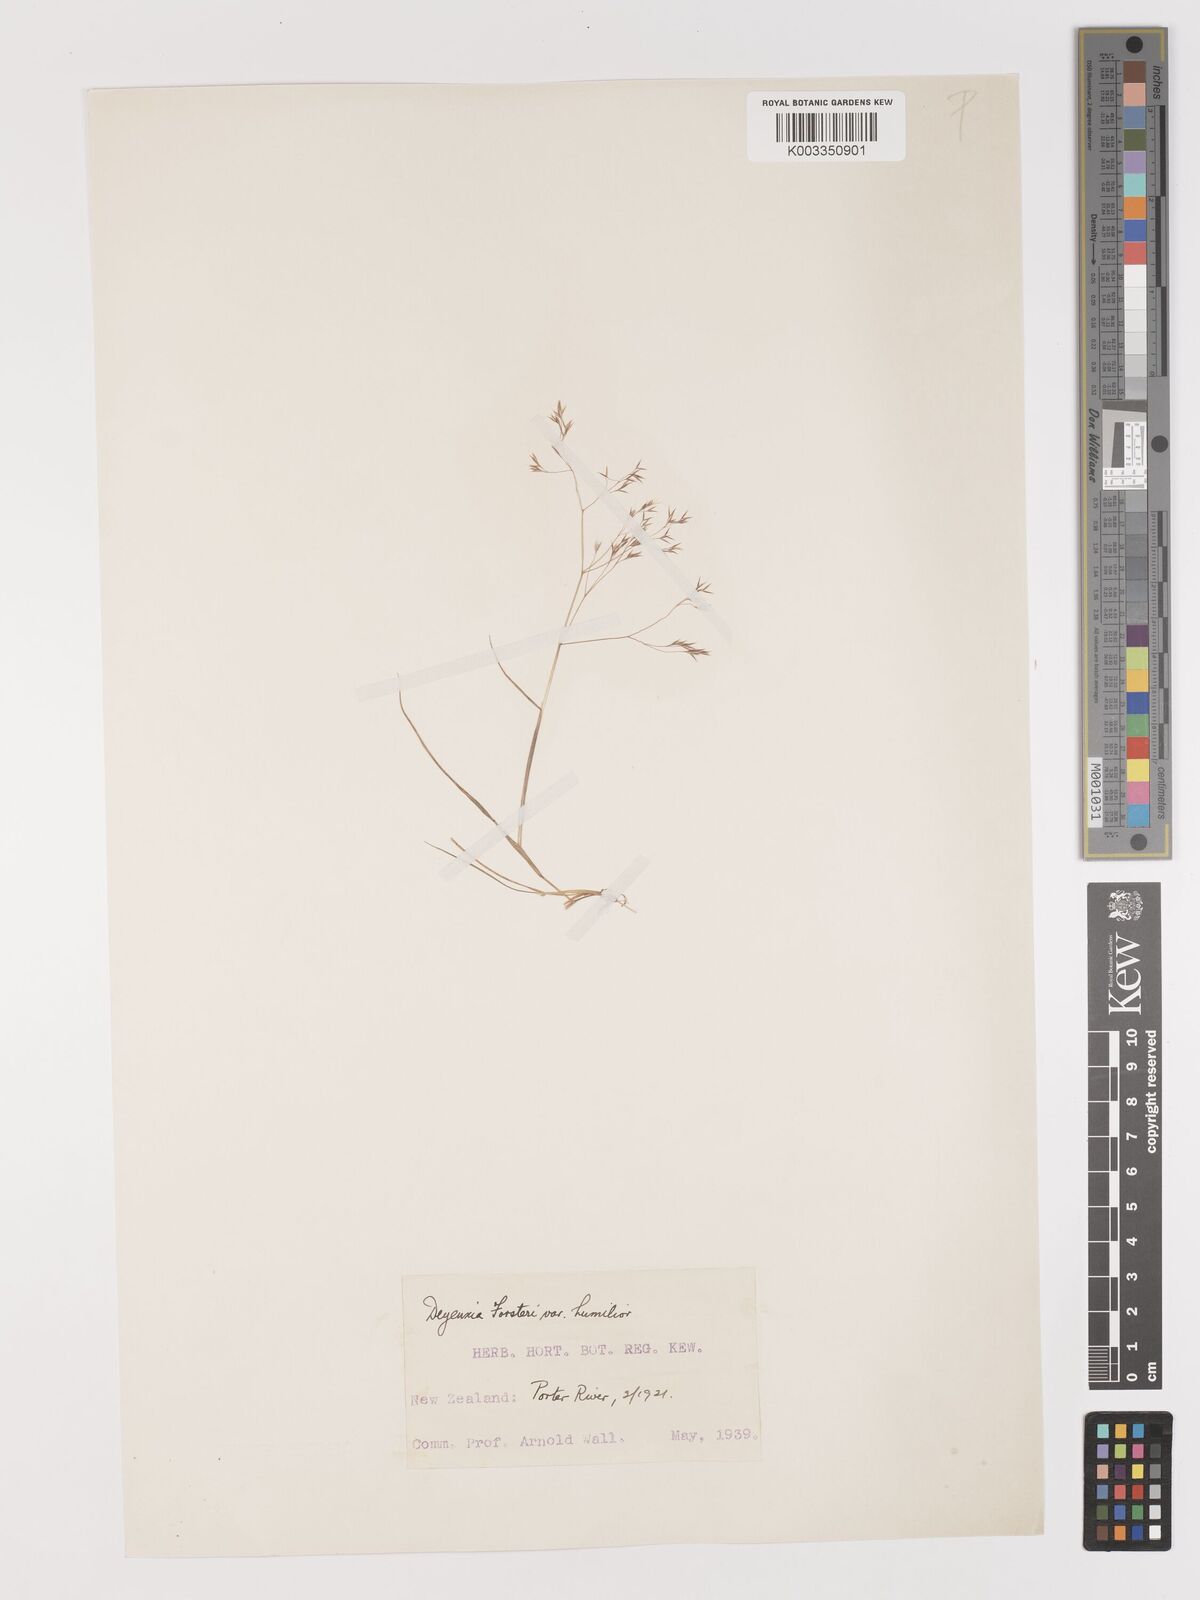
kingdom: Plantae
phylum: Tracheophyta
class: Liliopsida
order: Poales
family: Poaceae
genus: Lachnagrostis
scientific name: Lachnagrostis filiformis
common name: Bentgrass
